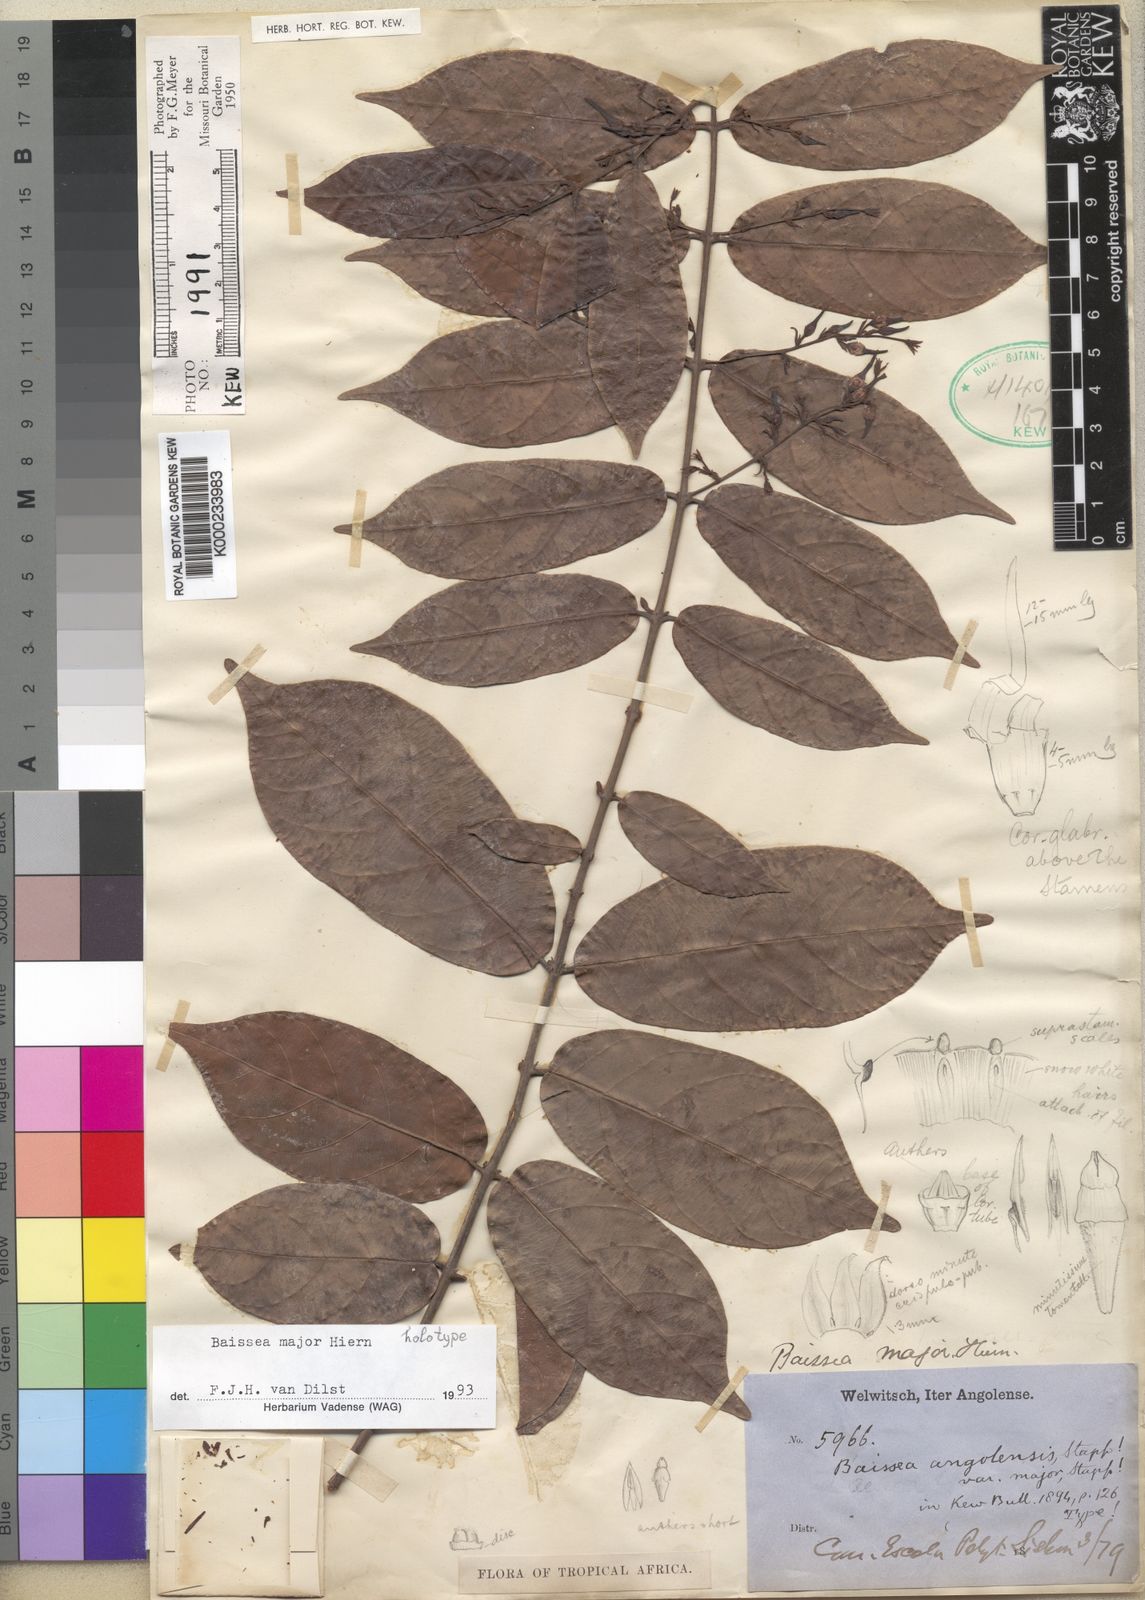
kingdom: Plantae
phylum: Tracheophyta
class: Magnoliopsida
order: Gentianales
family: Apocynaceae
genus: Baissea
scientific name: Baissea major
